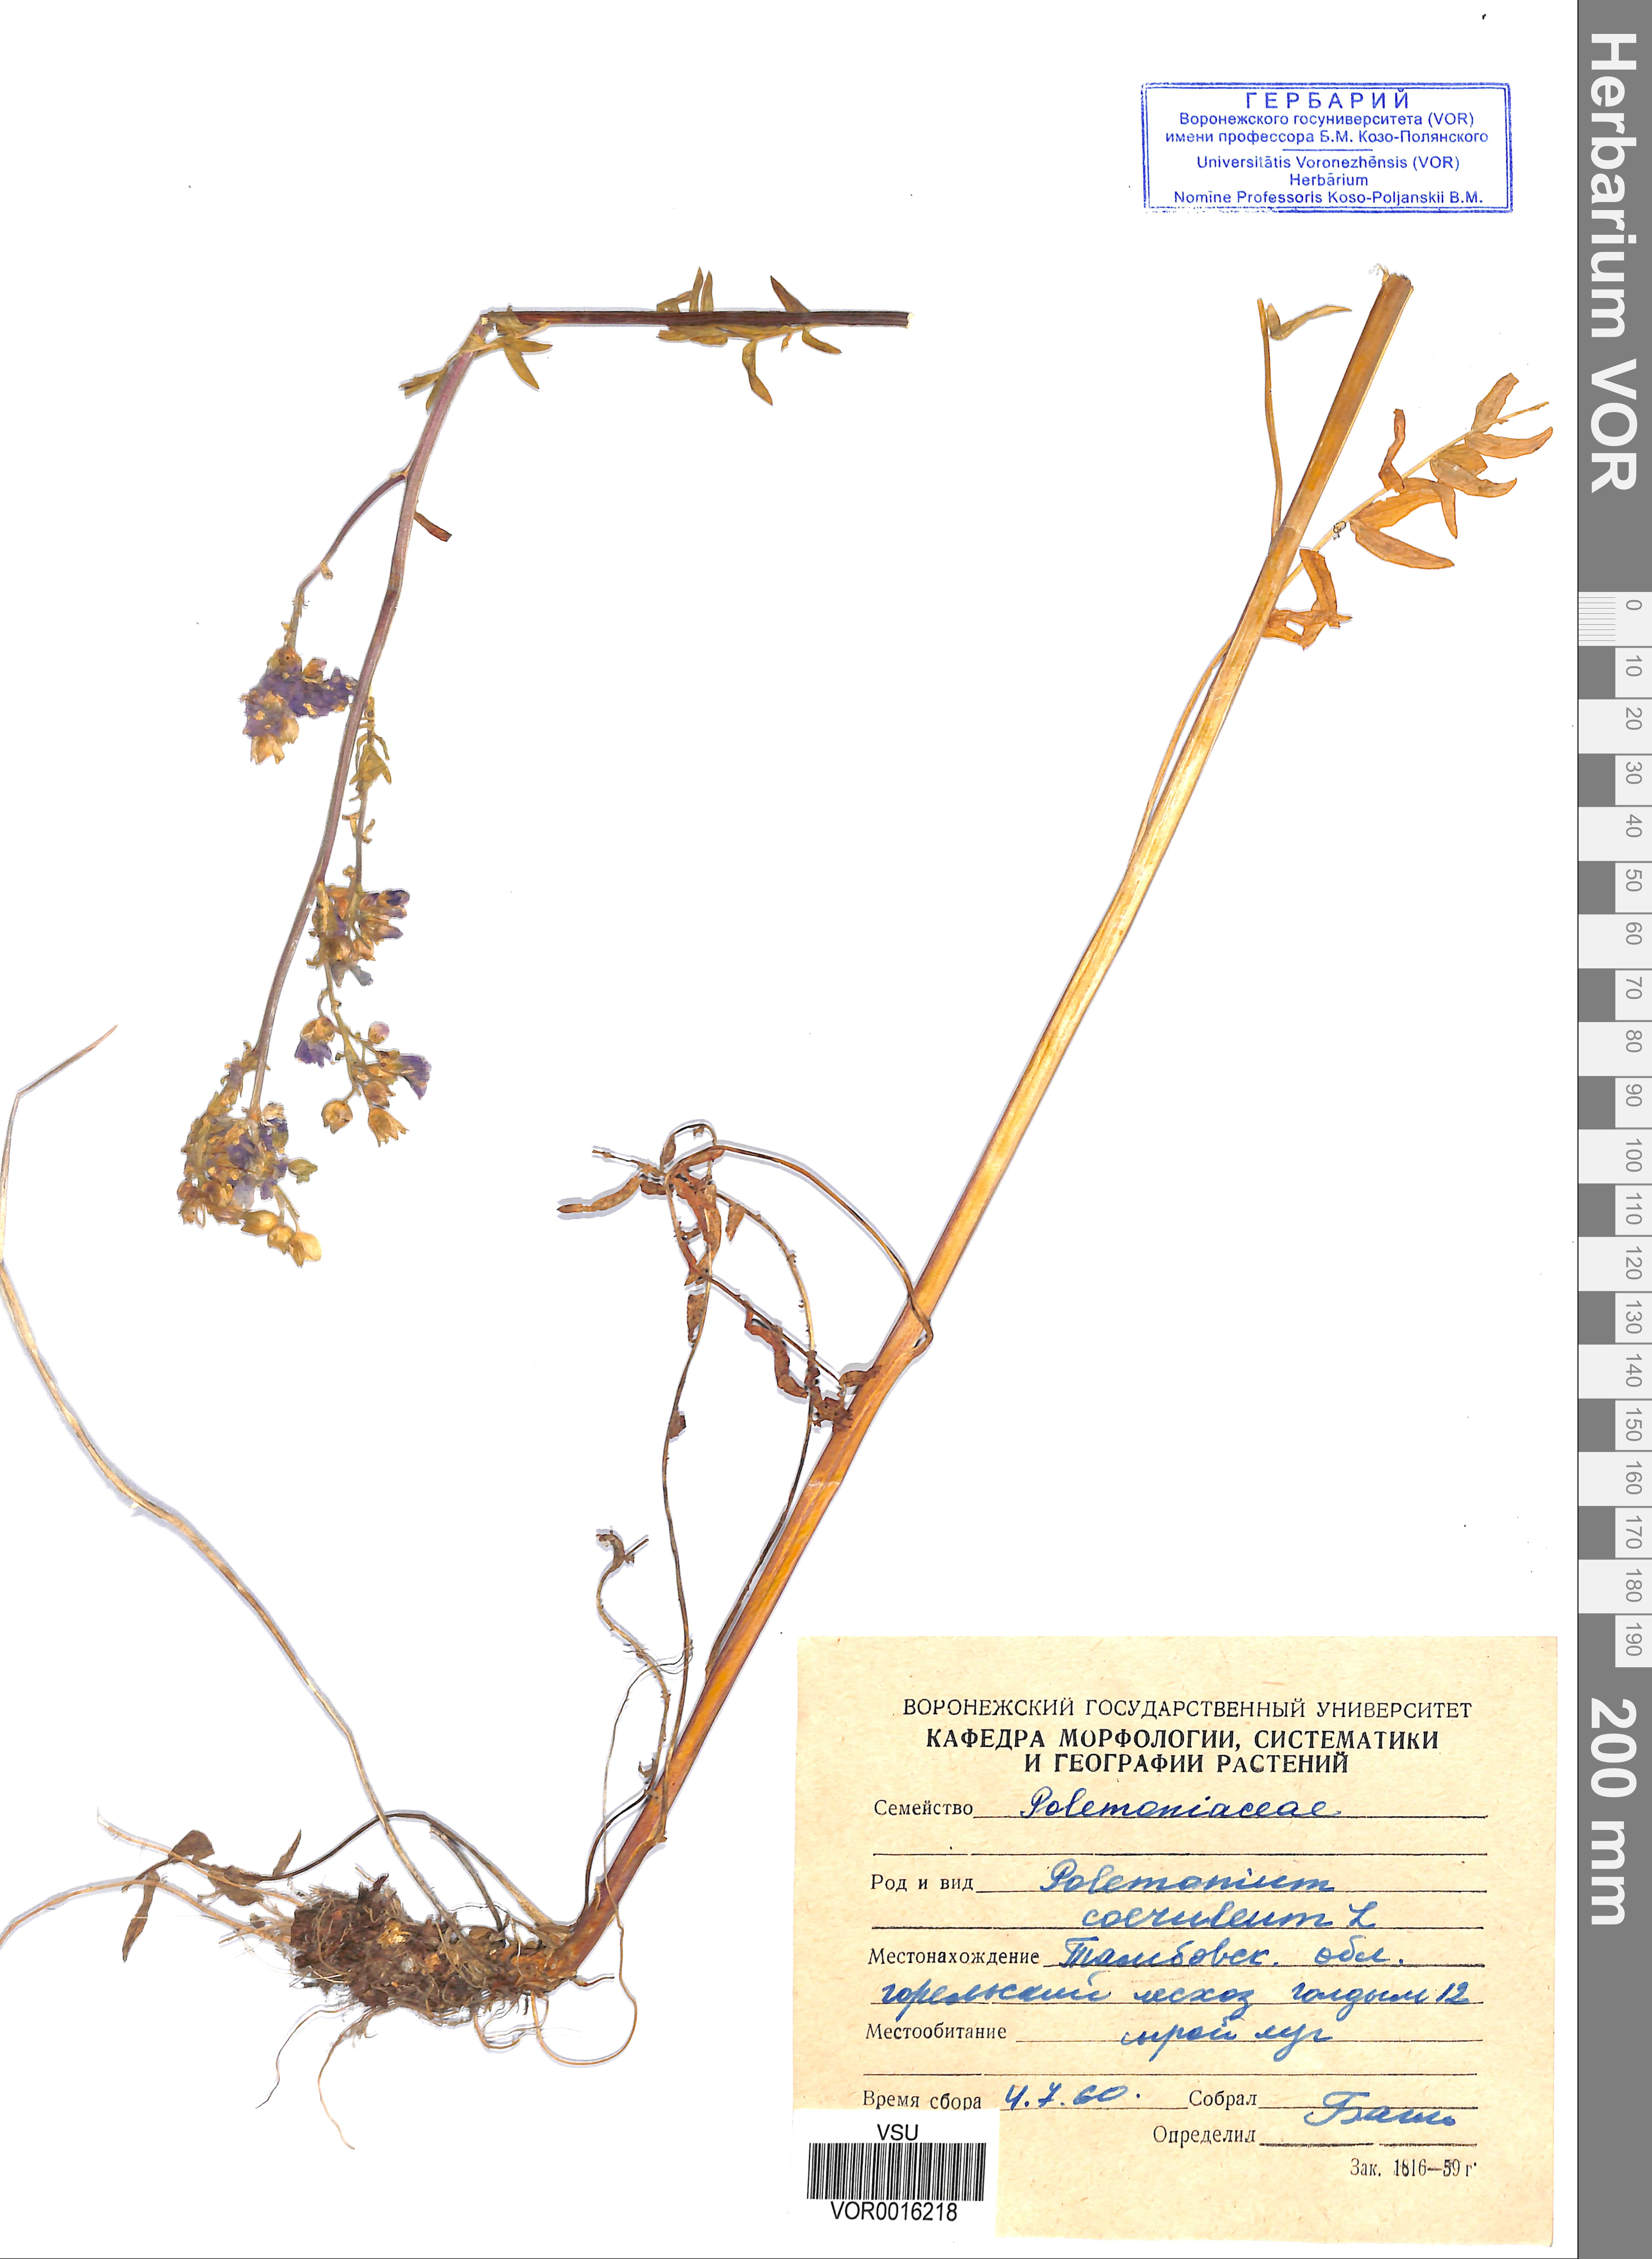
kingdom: Plantae
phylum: Tracheophyta
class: Magnoliopsida
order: Ericales
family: Polemoniaceae
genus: Polemonium
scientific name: Polemonium caeruleum
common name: Jacob's-ladder
